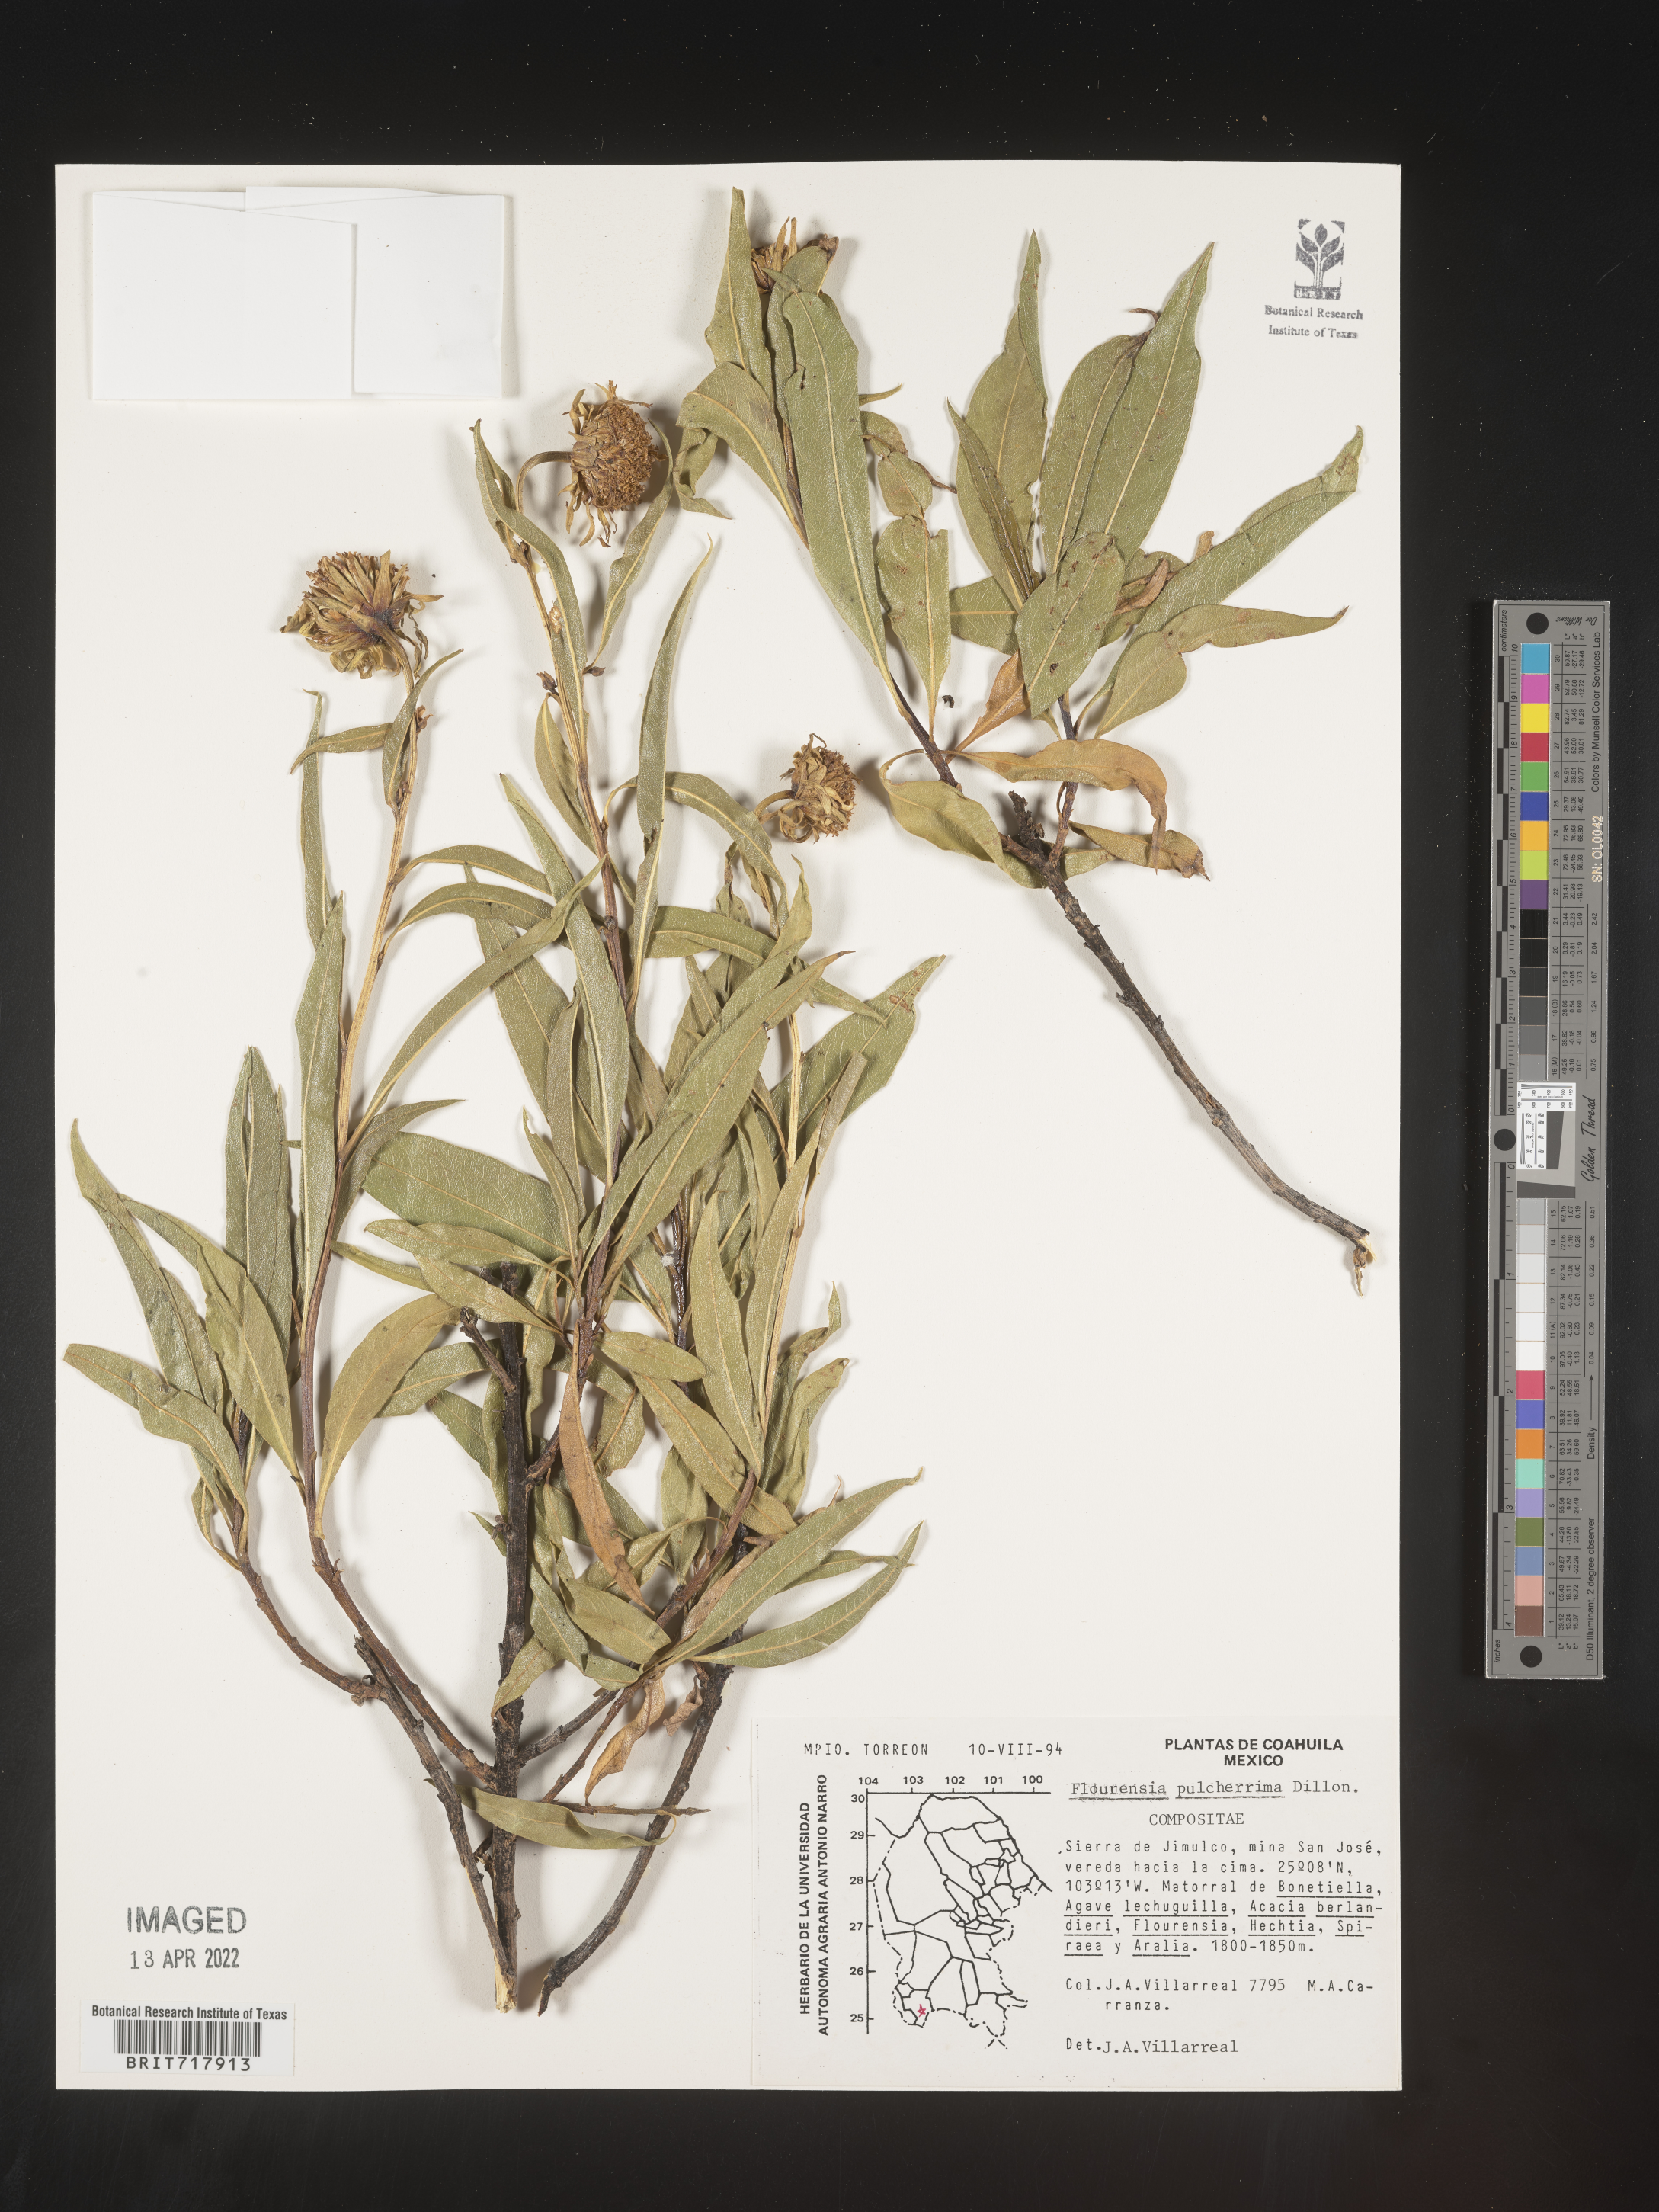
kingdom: Plantae
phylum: Tracheophyta
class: Magnoliopsida
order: Asterales
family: Asteraceae
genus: Flourensia
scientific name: Flourensia
